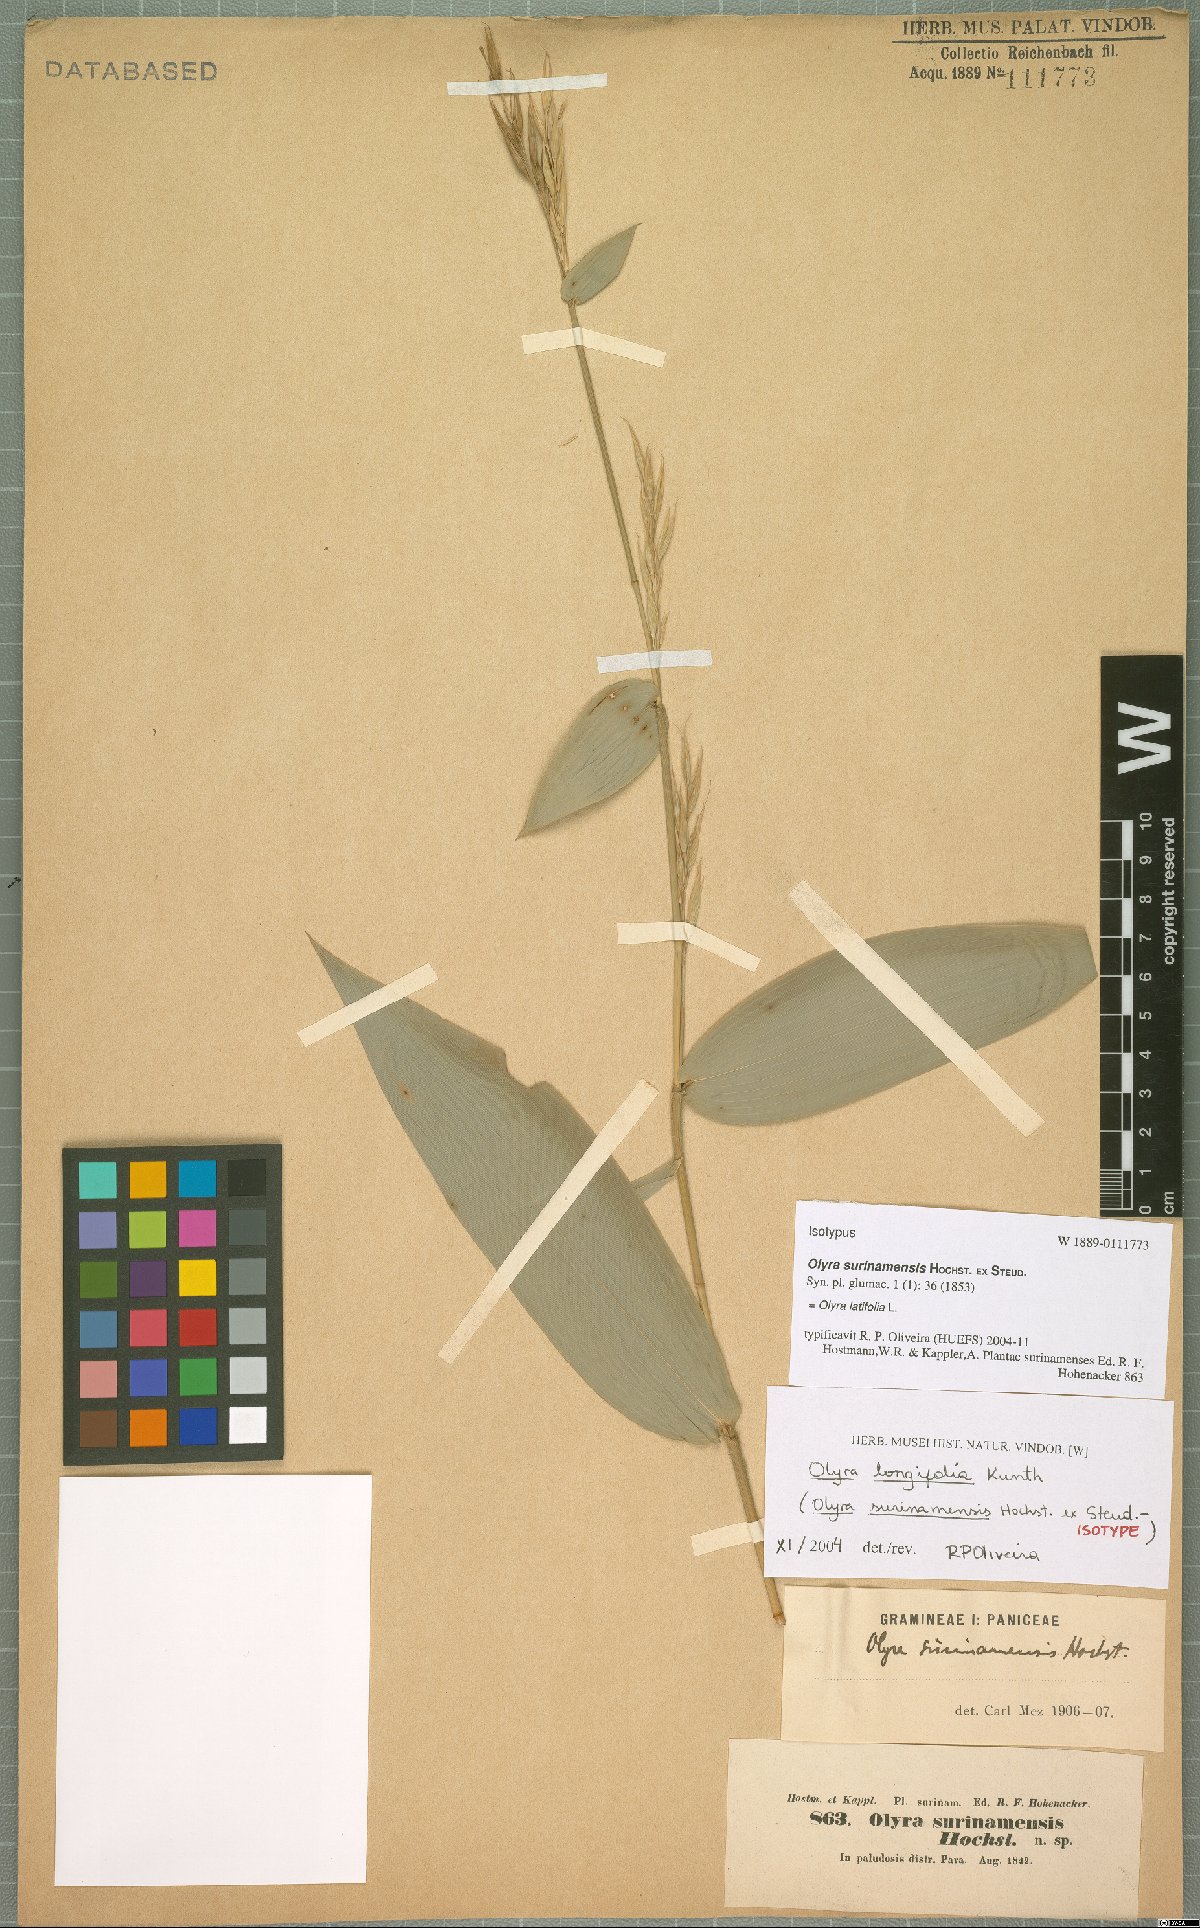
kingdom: Plantae
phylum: Tracheophyta
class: Liliopsida
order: Poales
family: Poaceae
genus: Olyra
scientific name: Olyra latifolia
